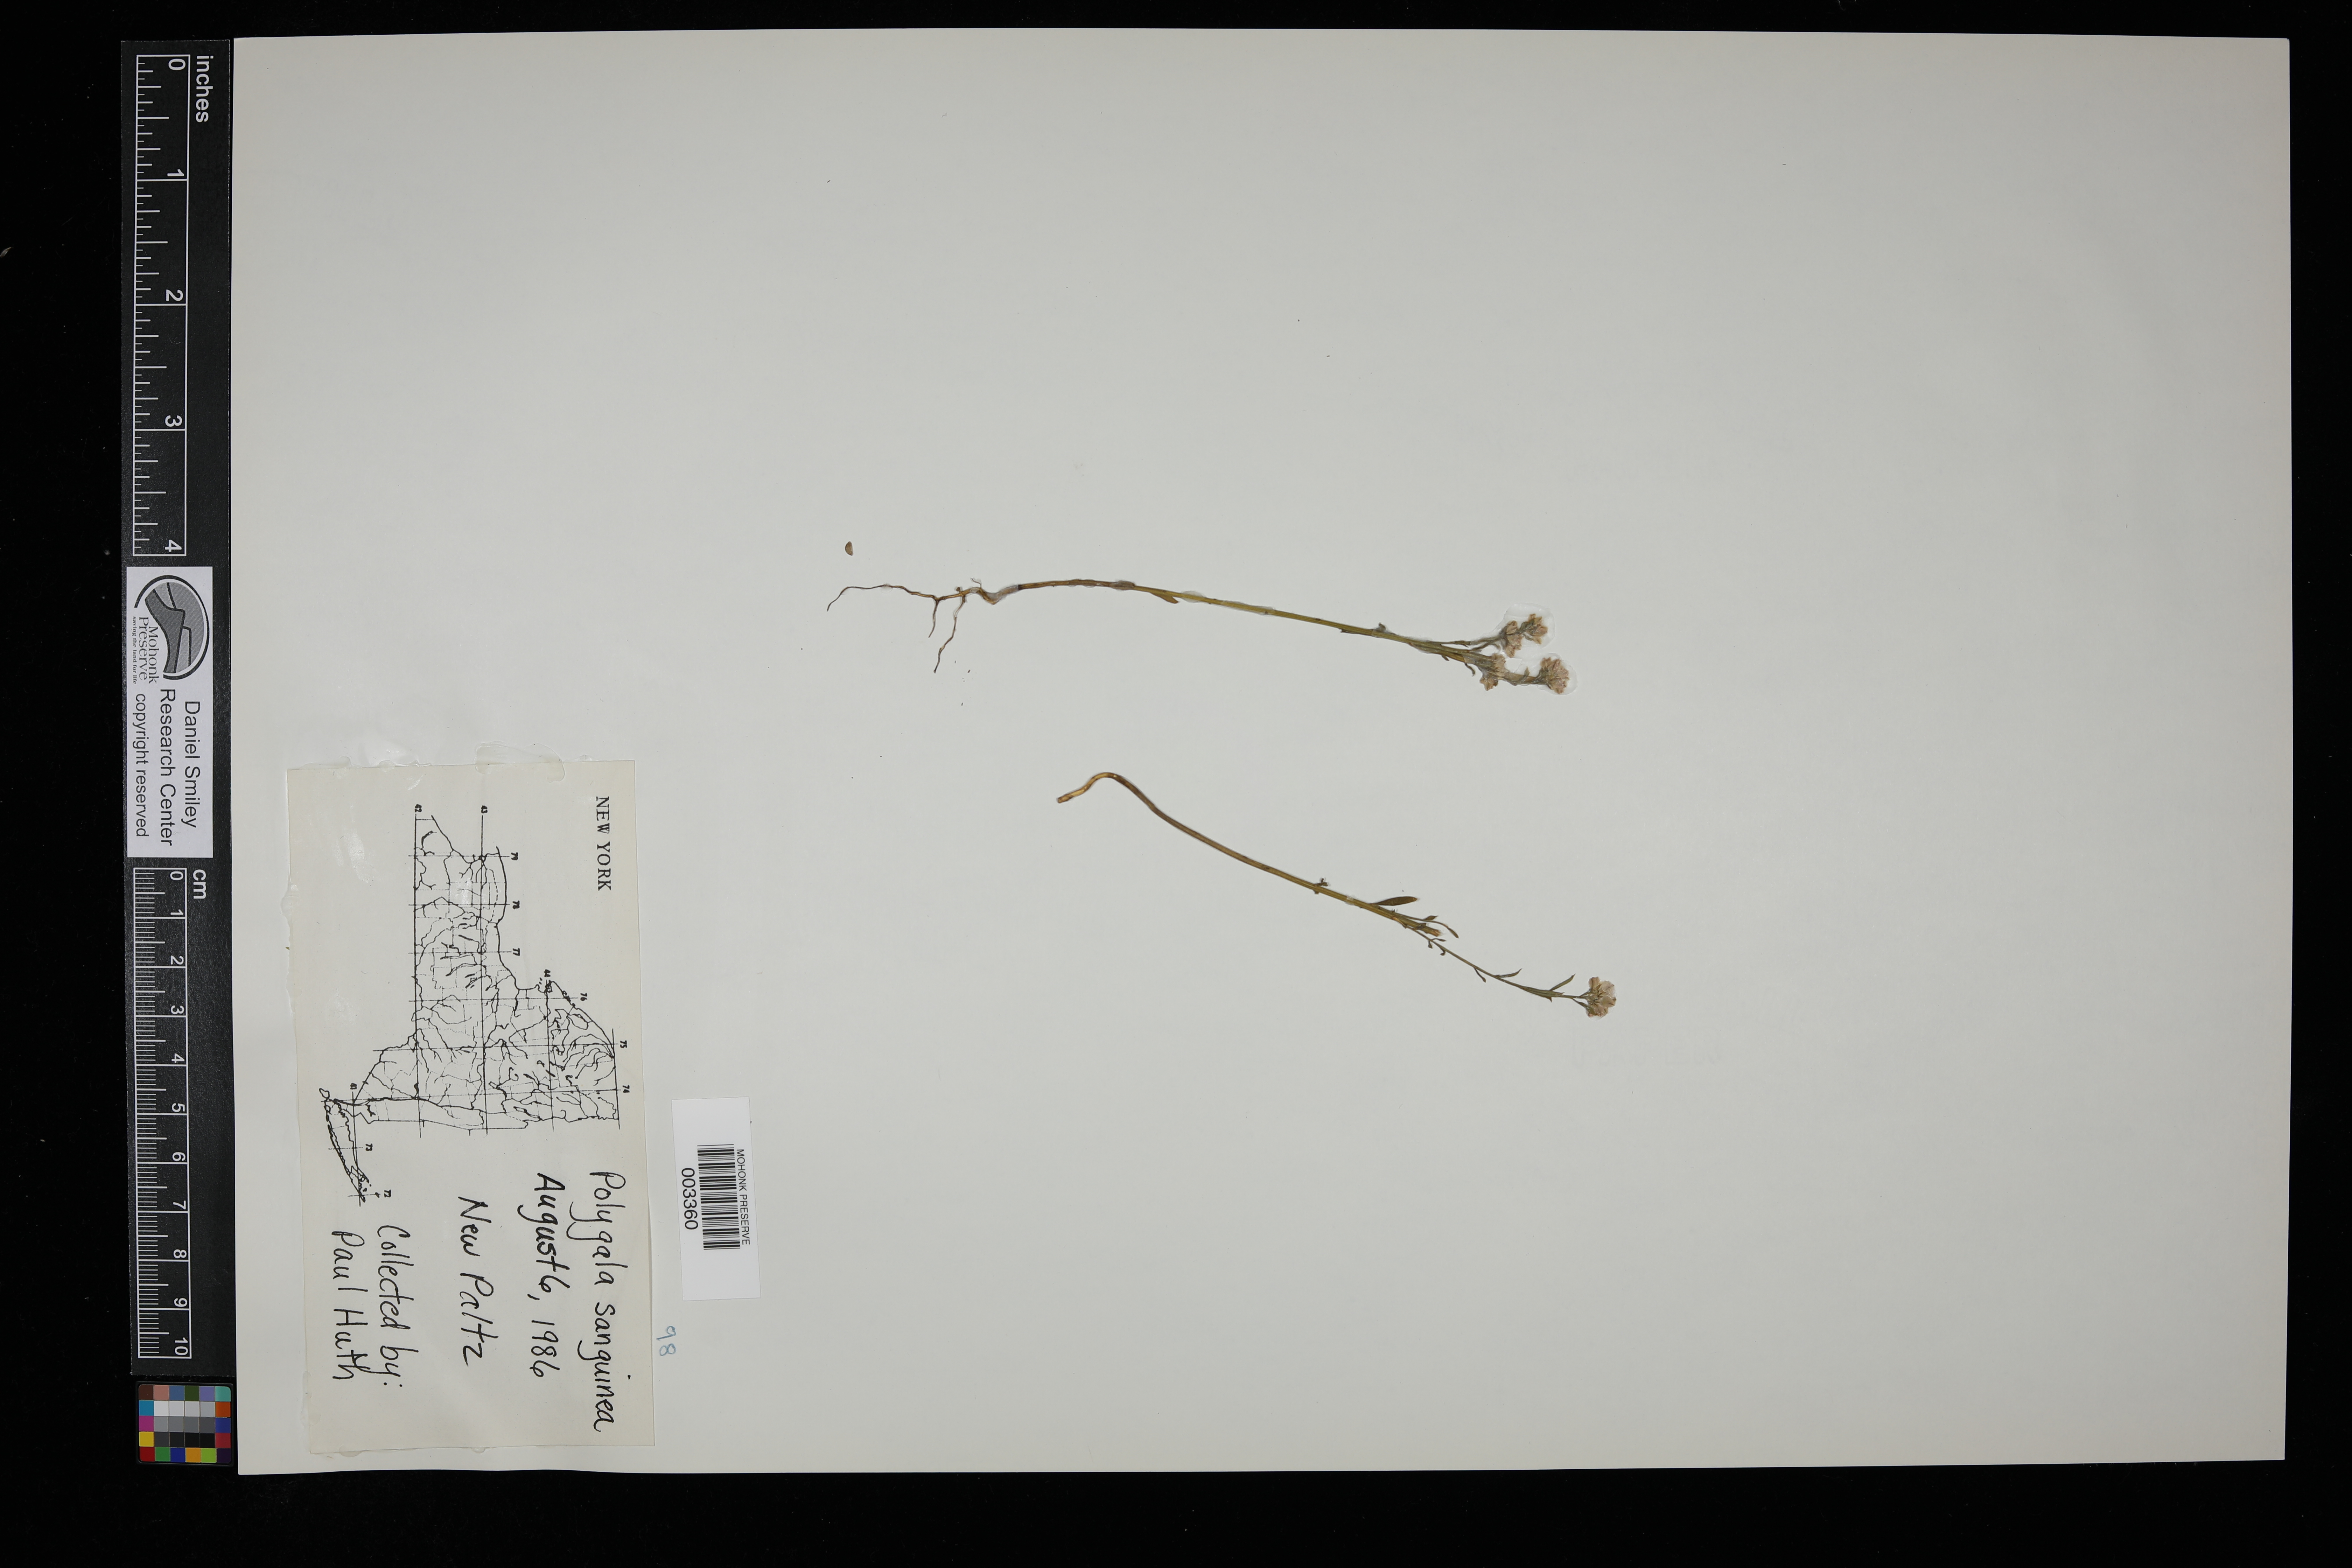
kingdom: Plantae
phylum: Tracheophyta
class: Magnoliopsida
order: Fabales
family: Polygalaceae
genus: Polygala
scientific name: Polygala sanguinea
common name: Blood milkwort
